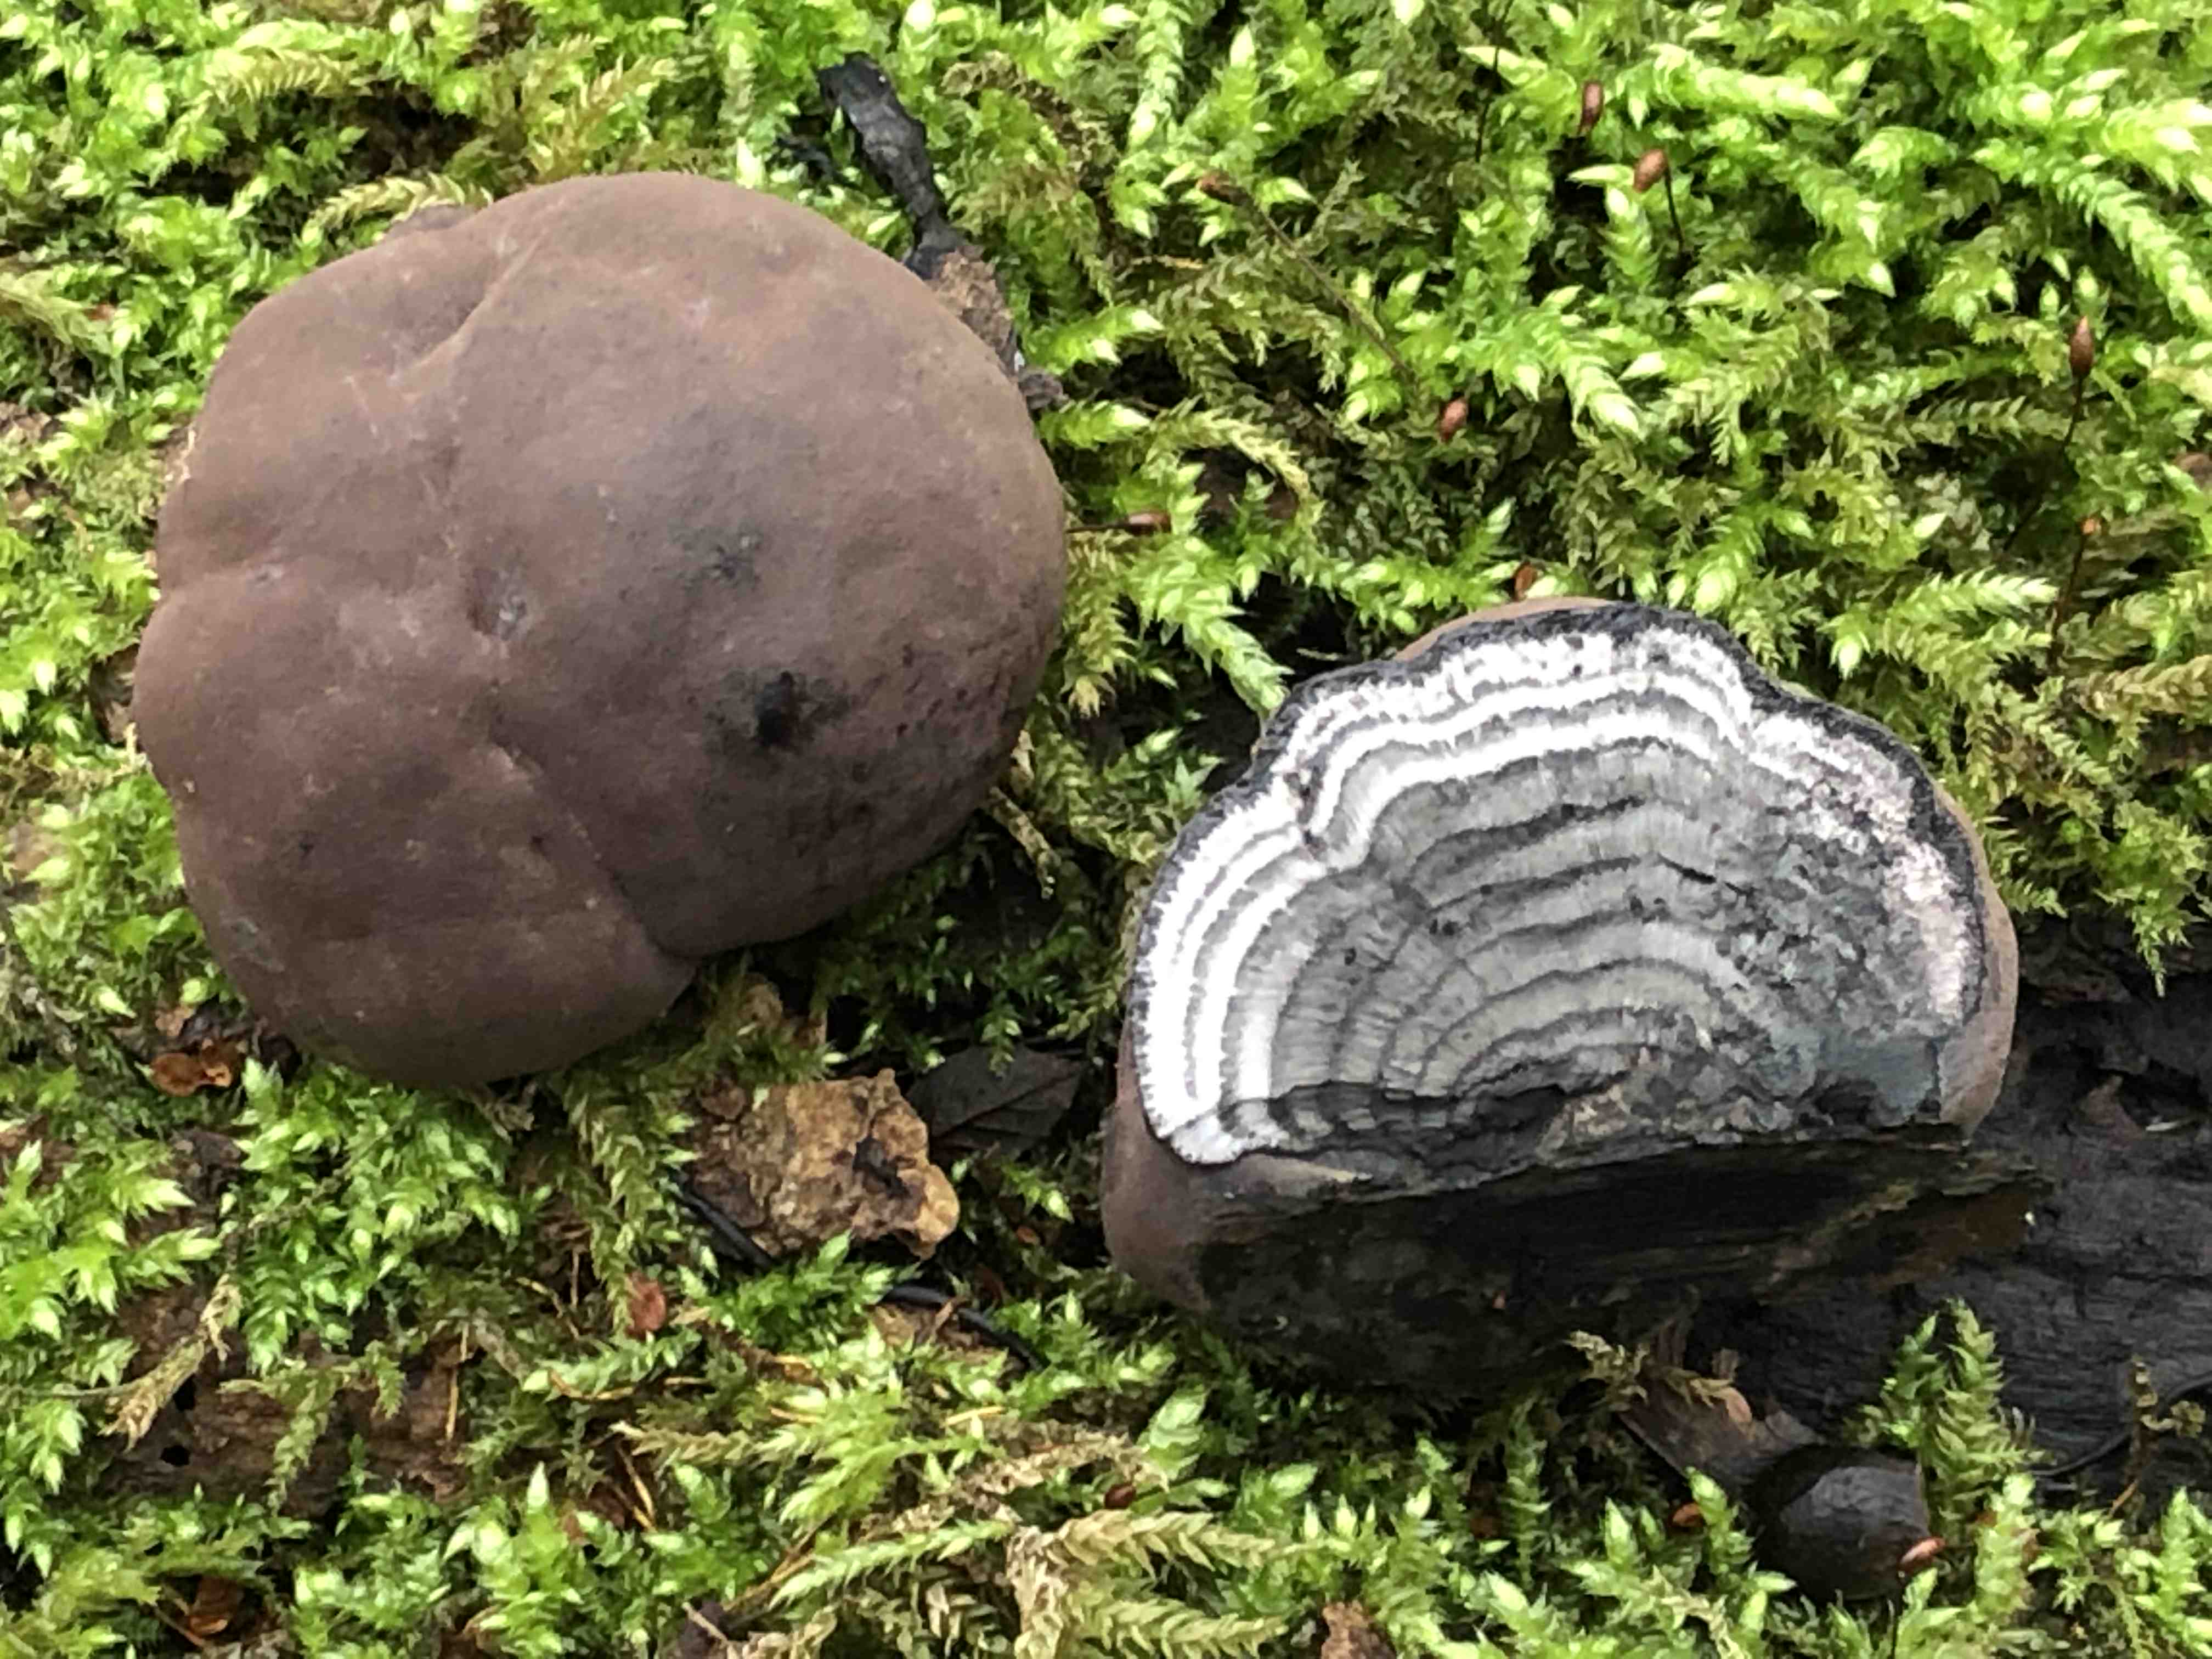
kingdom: Fungi
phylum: Ascomycota
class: Sordariomycetes
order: Xylariales
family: Hypoxylaceae
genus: Daldinia
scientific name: Daldinia concentrica
